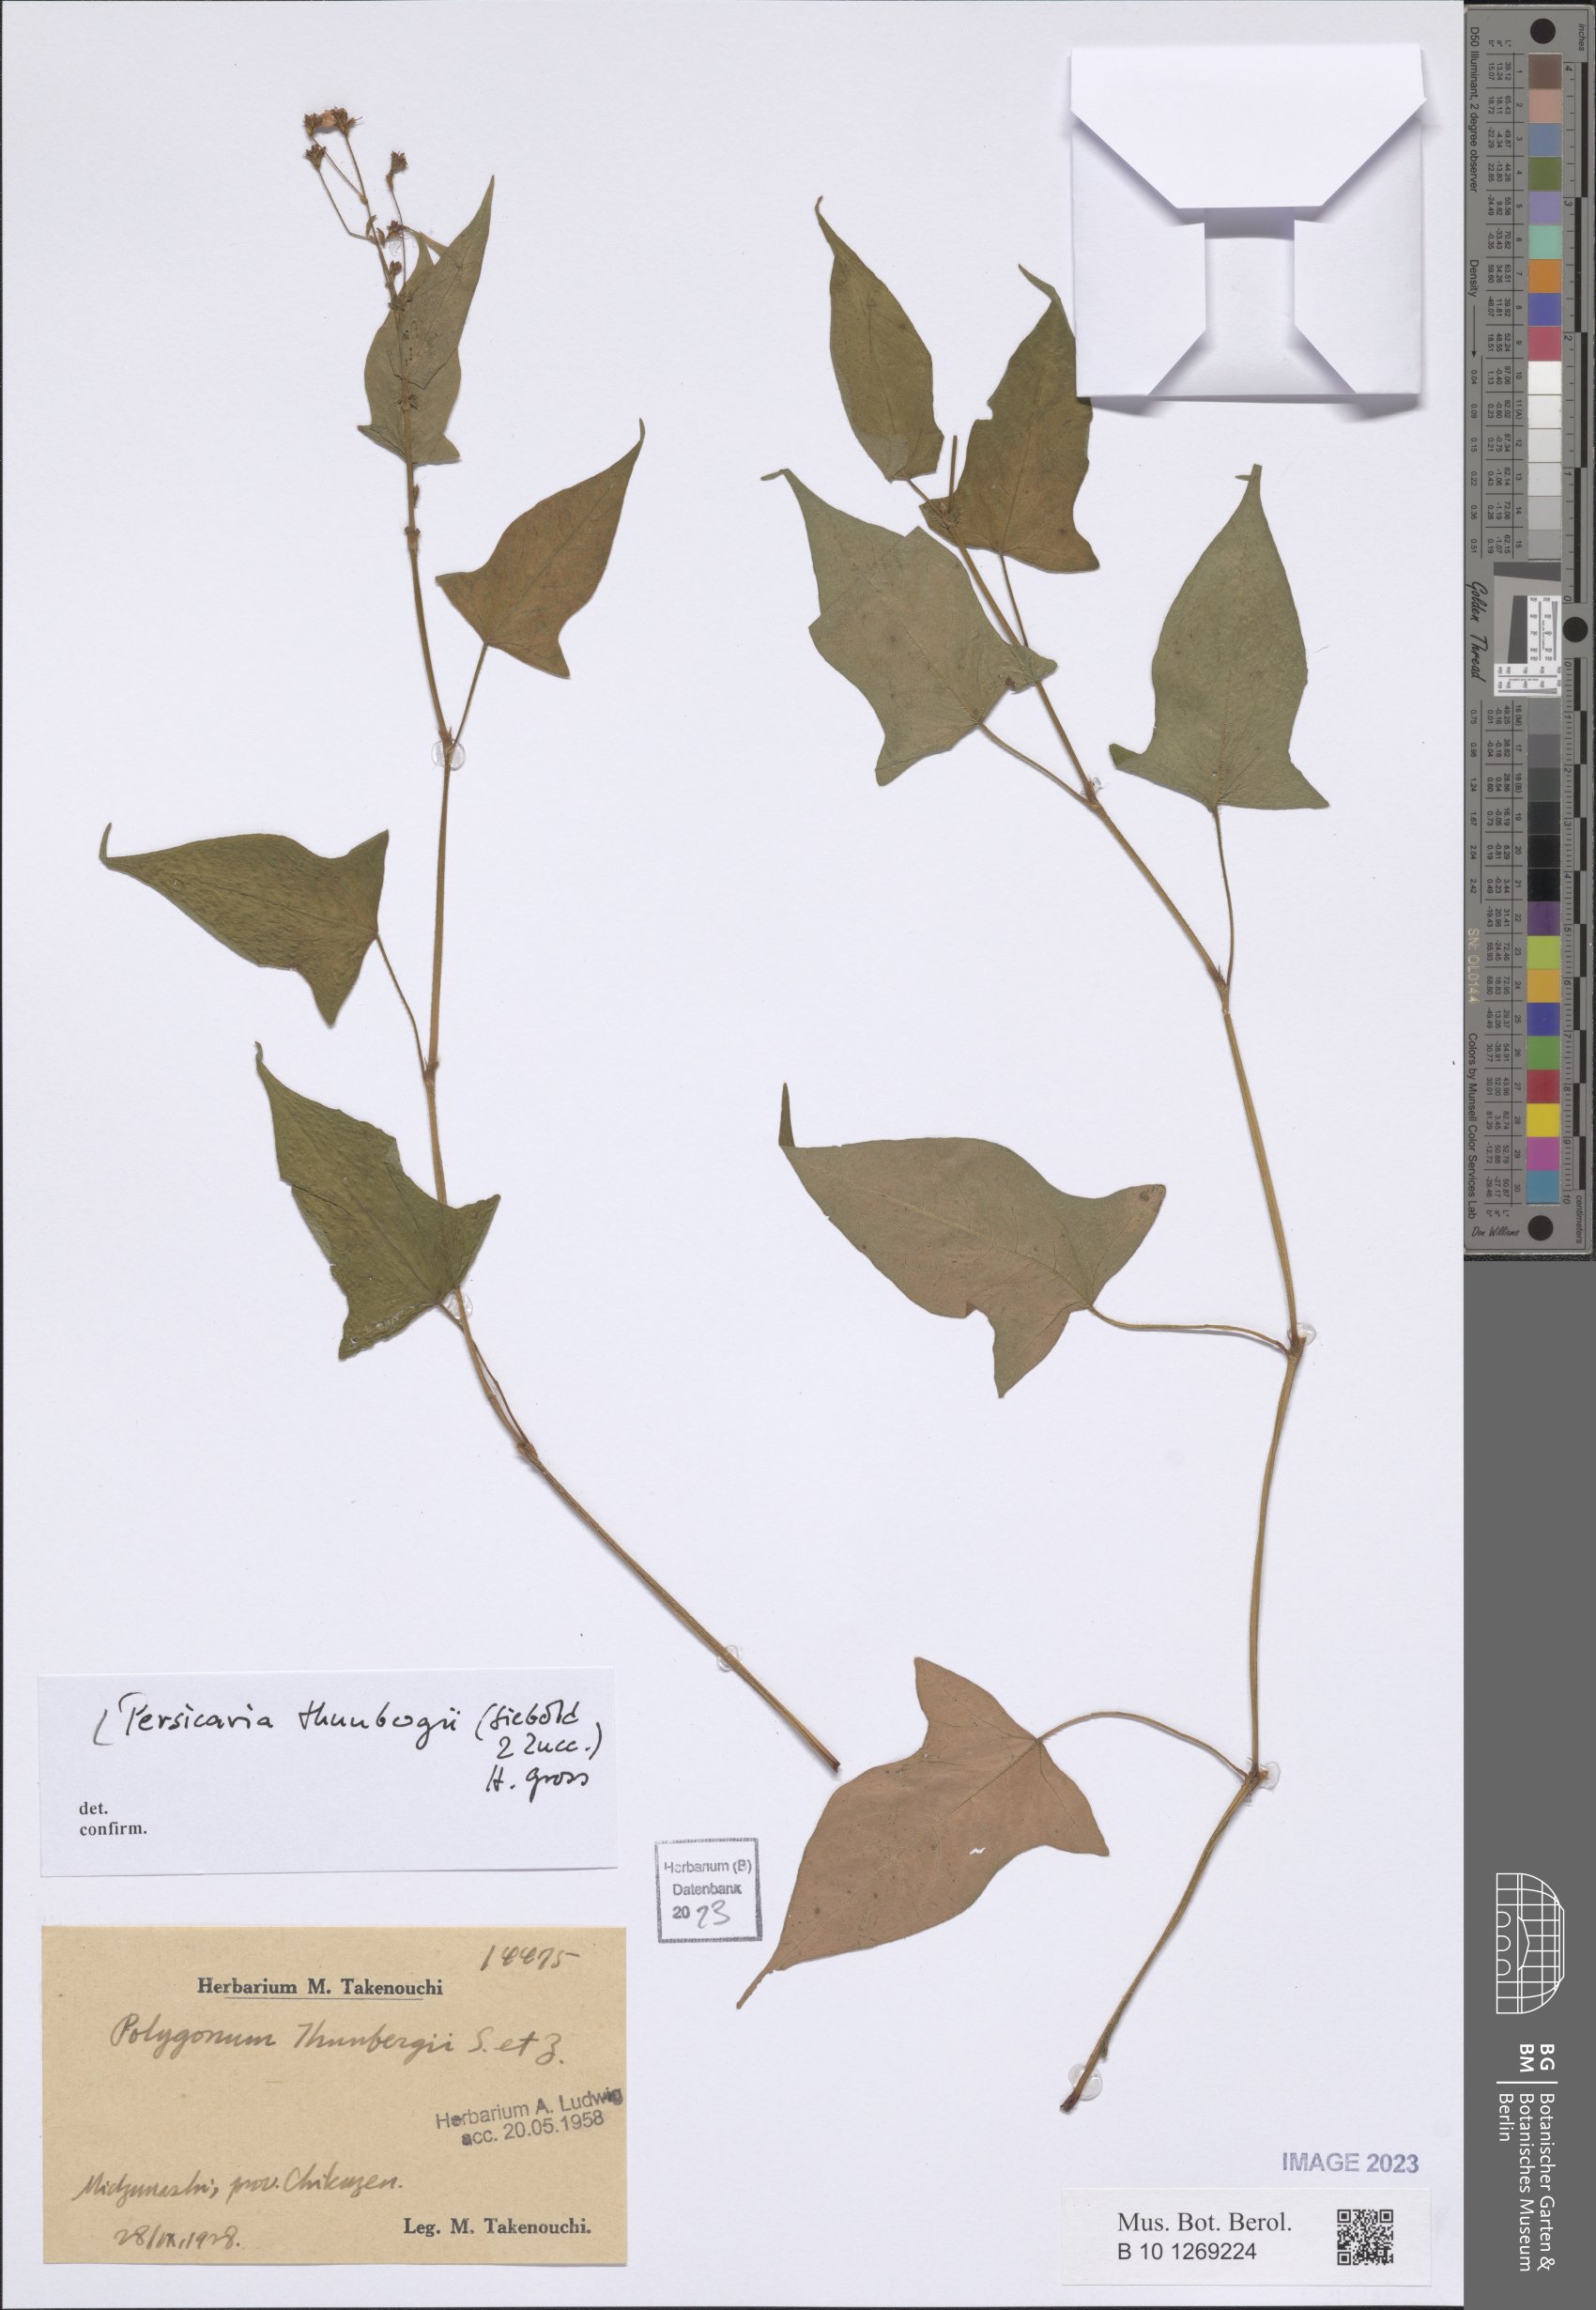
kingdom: Plantae
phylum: Tracheophyta
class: Magnoliopsida
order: Caryophyllales
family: Polygonaceae
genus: Persicaria
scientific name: Persicaria thunbergii
